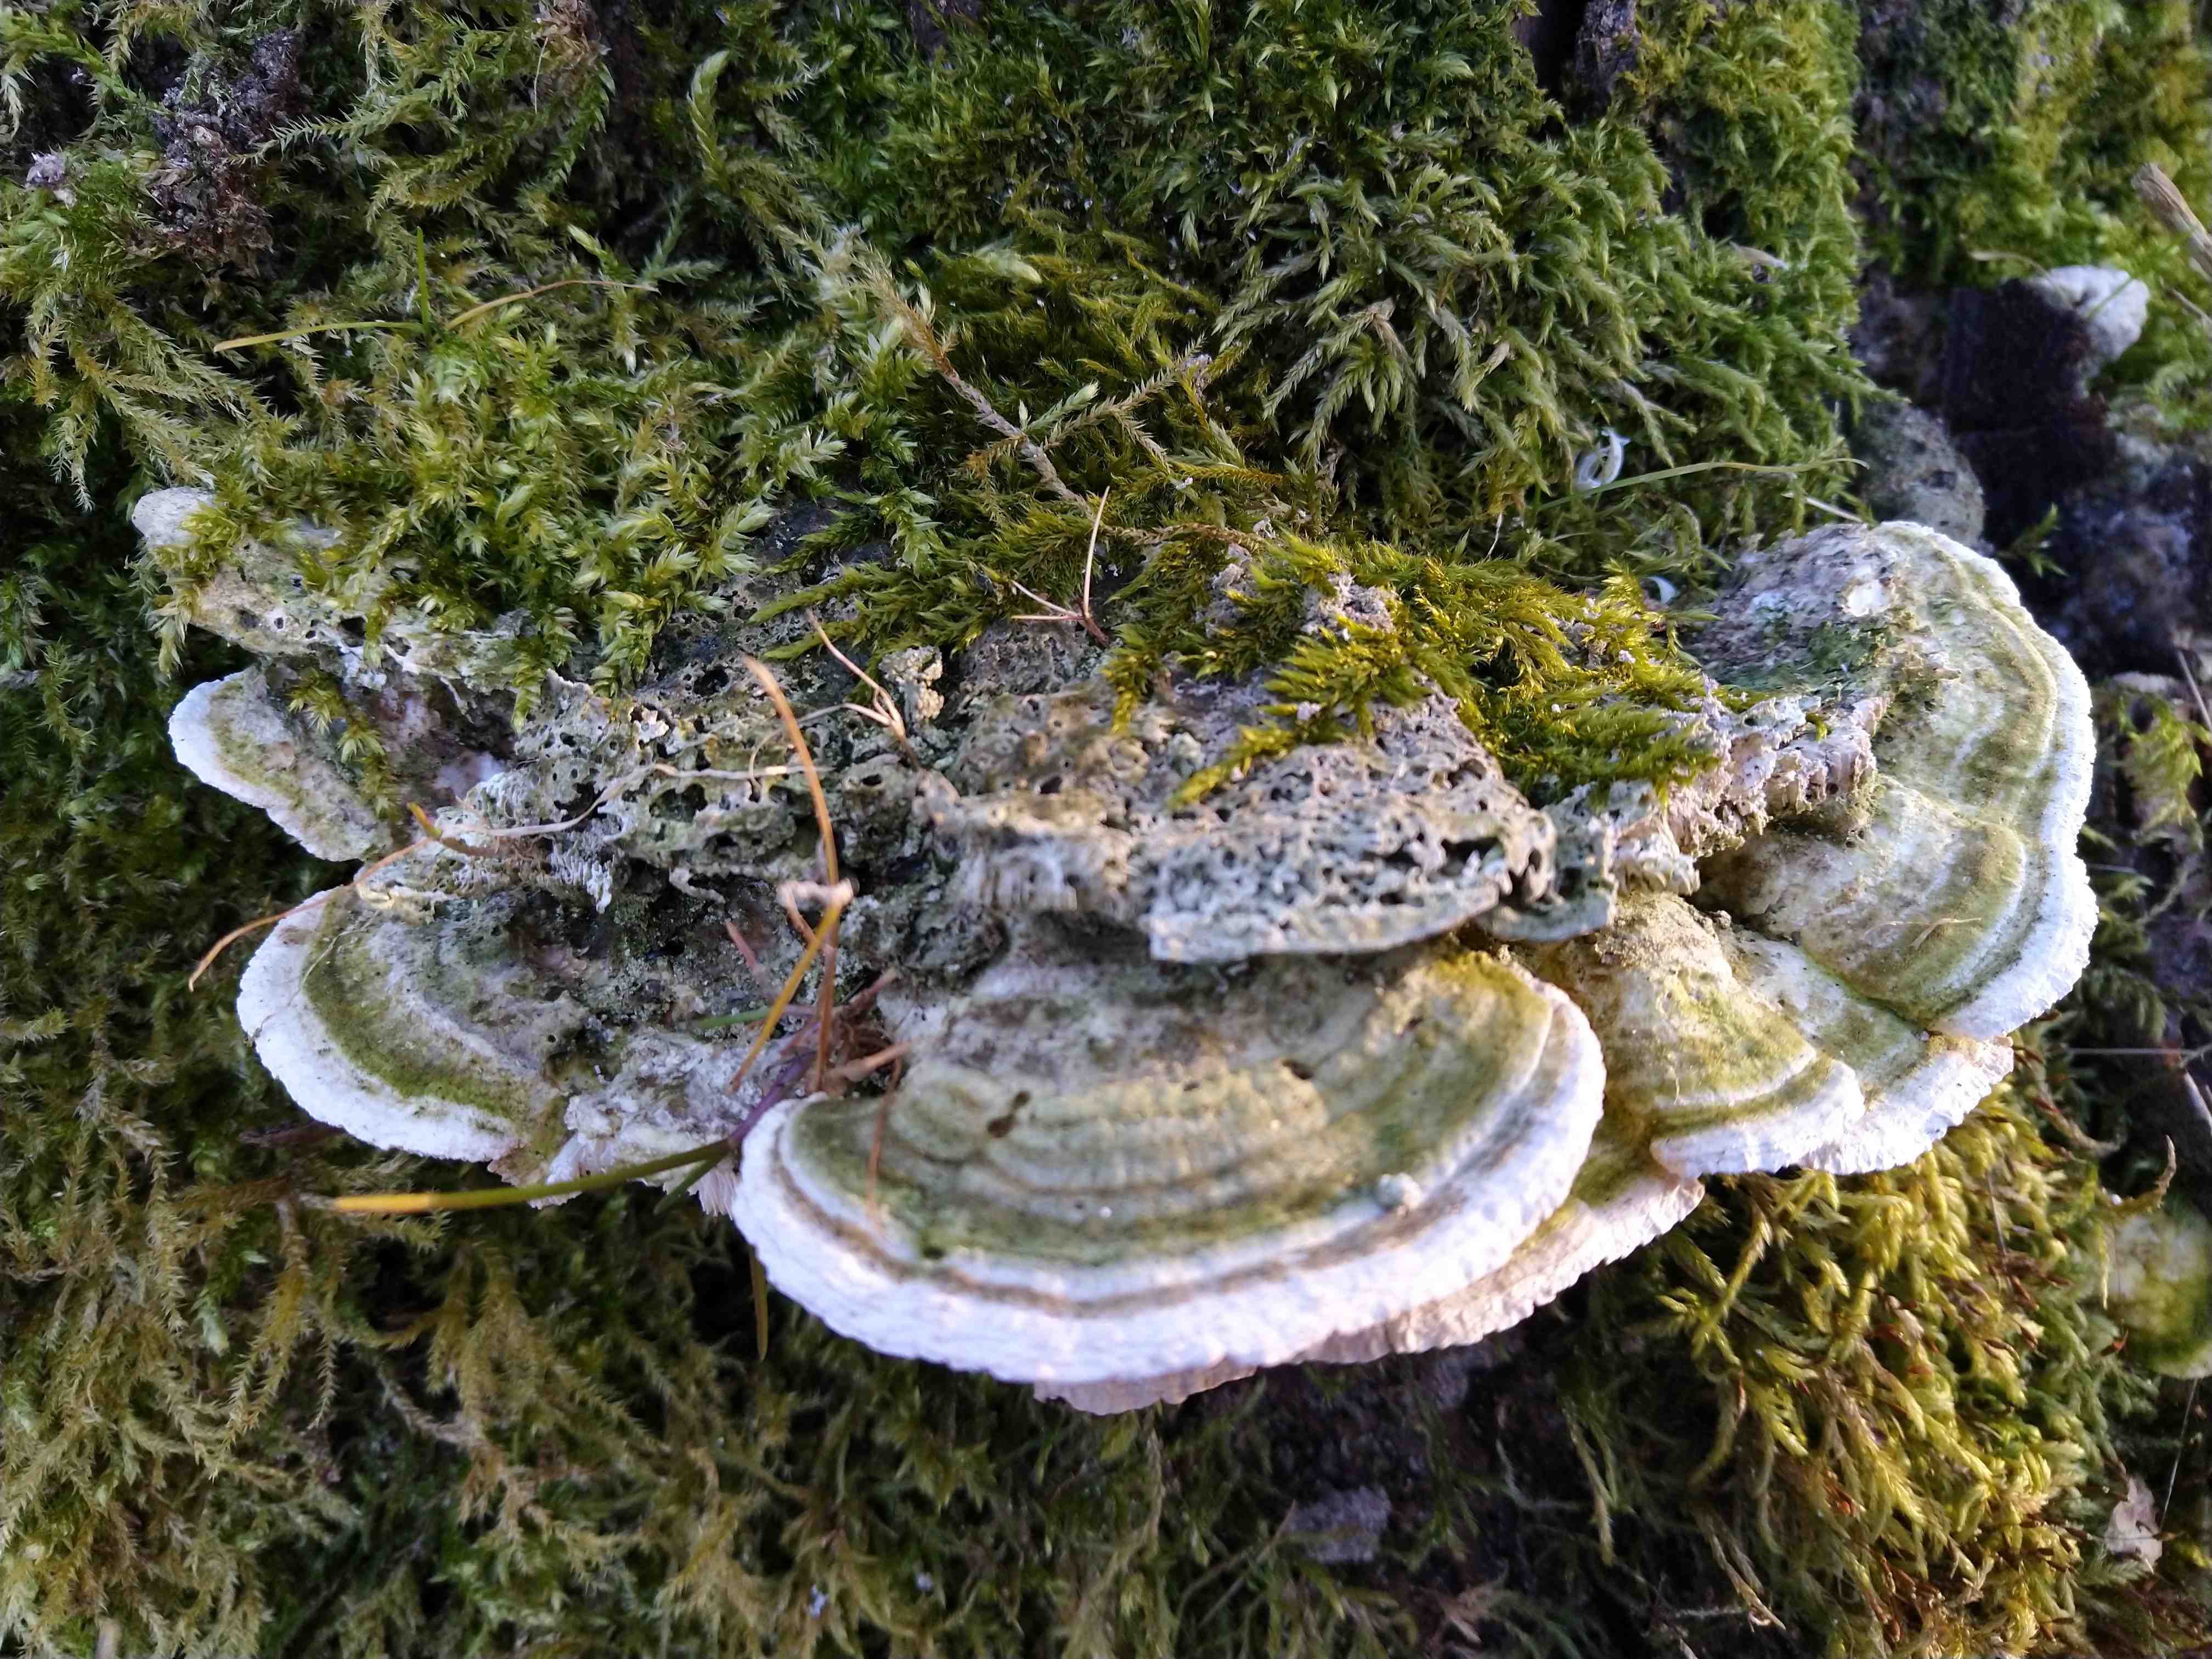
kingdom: Fungi
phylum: Basidiomycota
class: Agaricomycetes
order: Polyporales
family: Polyporaceae
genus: Trametes
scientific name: Trametes gibbosa
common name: puklet læderporesvamp
